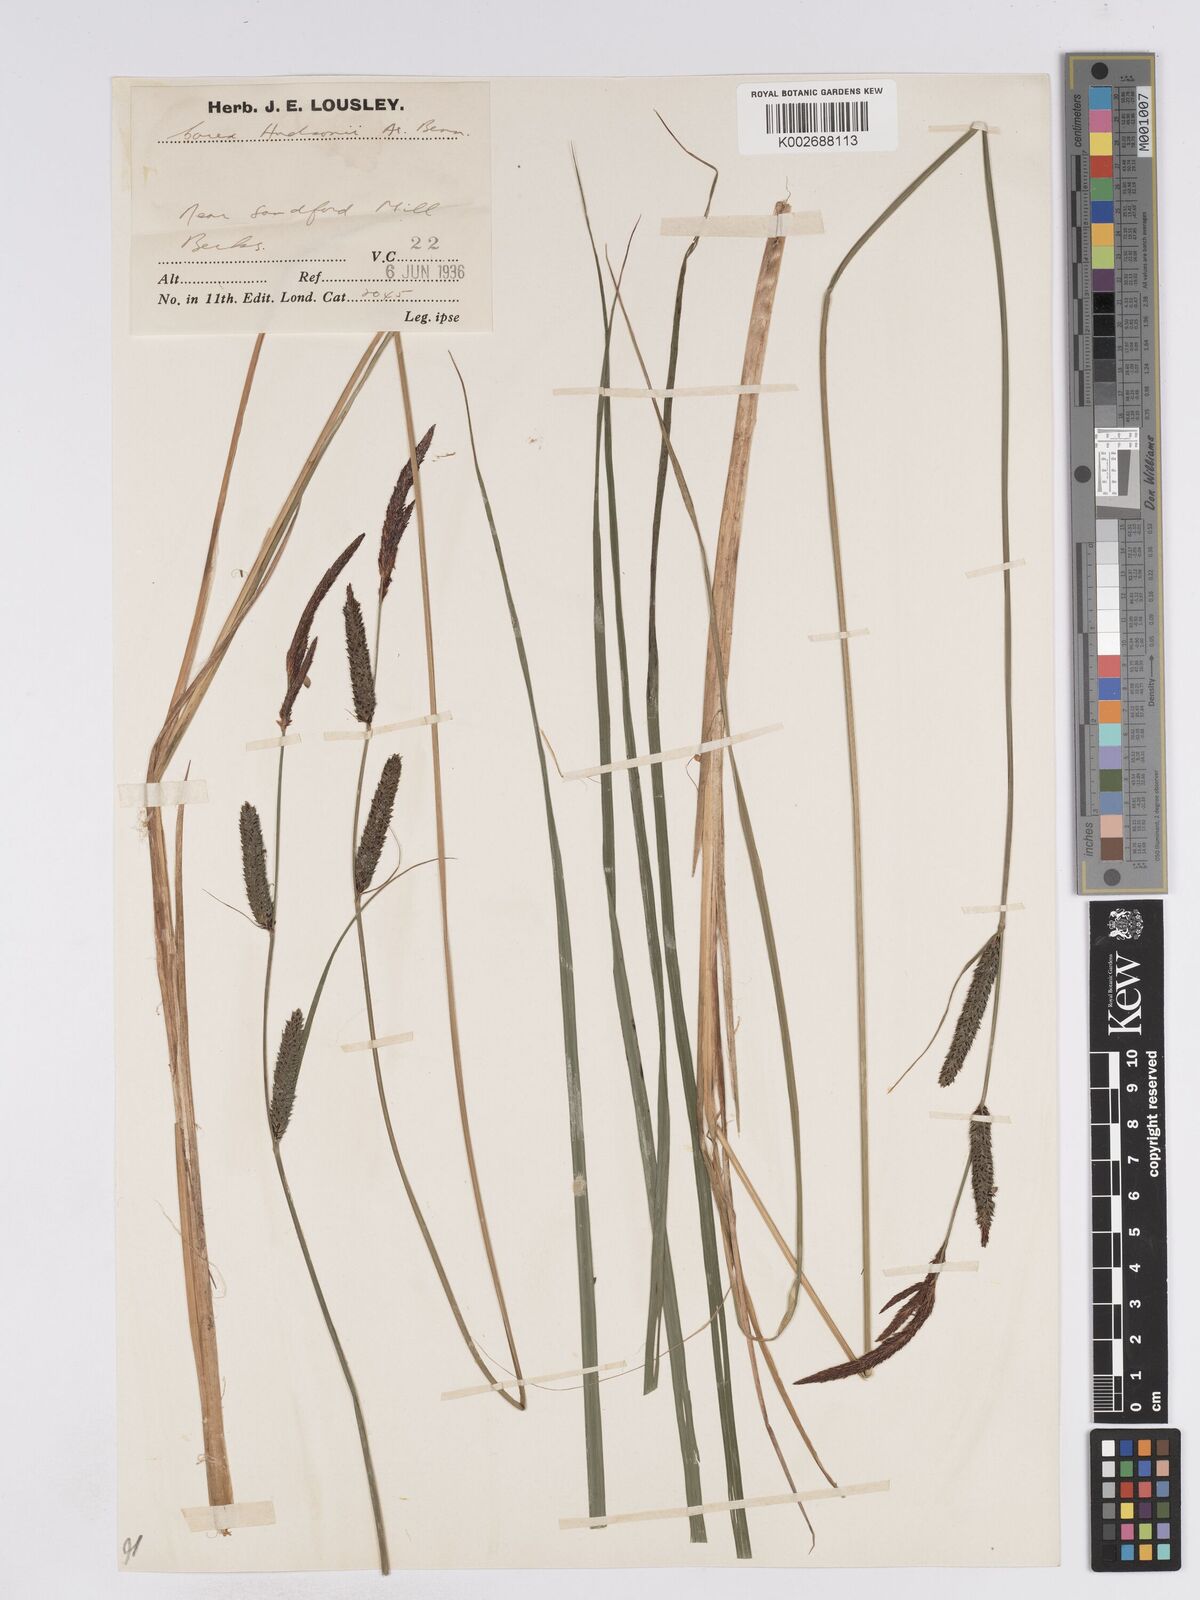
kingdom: Plantae
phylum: Tracheophyta
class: Liliopsida
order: Poales
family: Cyperaceae
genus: Carex
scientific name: Carex elata
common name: Tufted sedge
